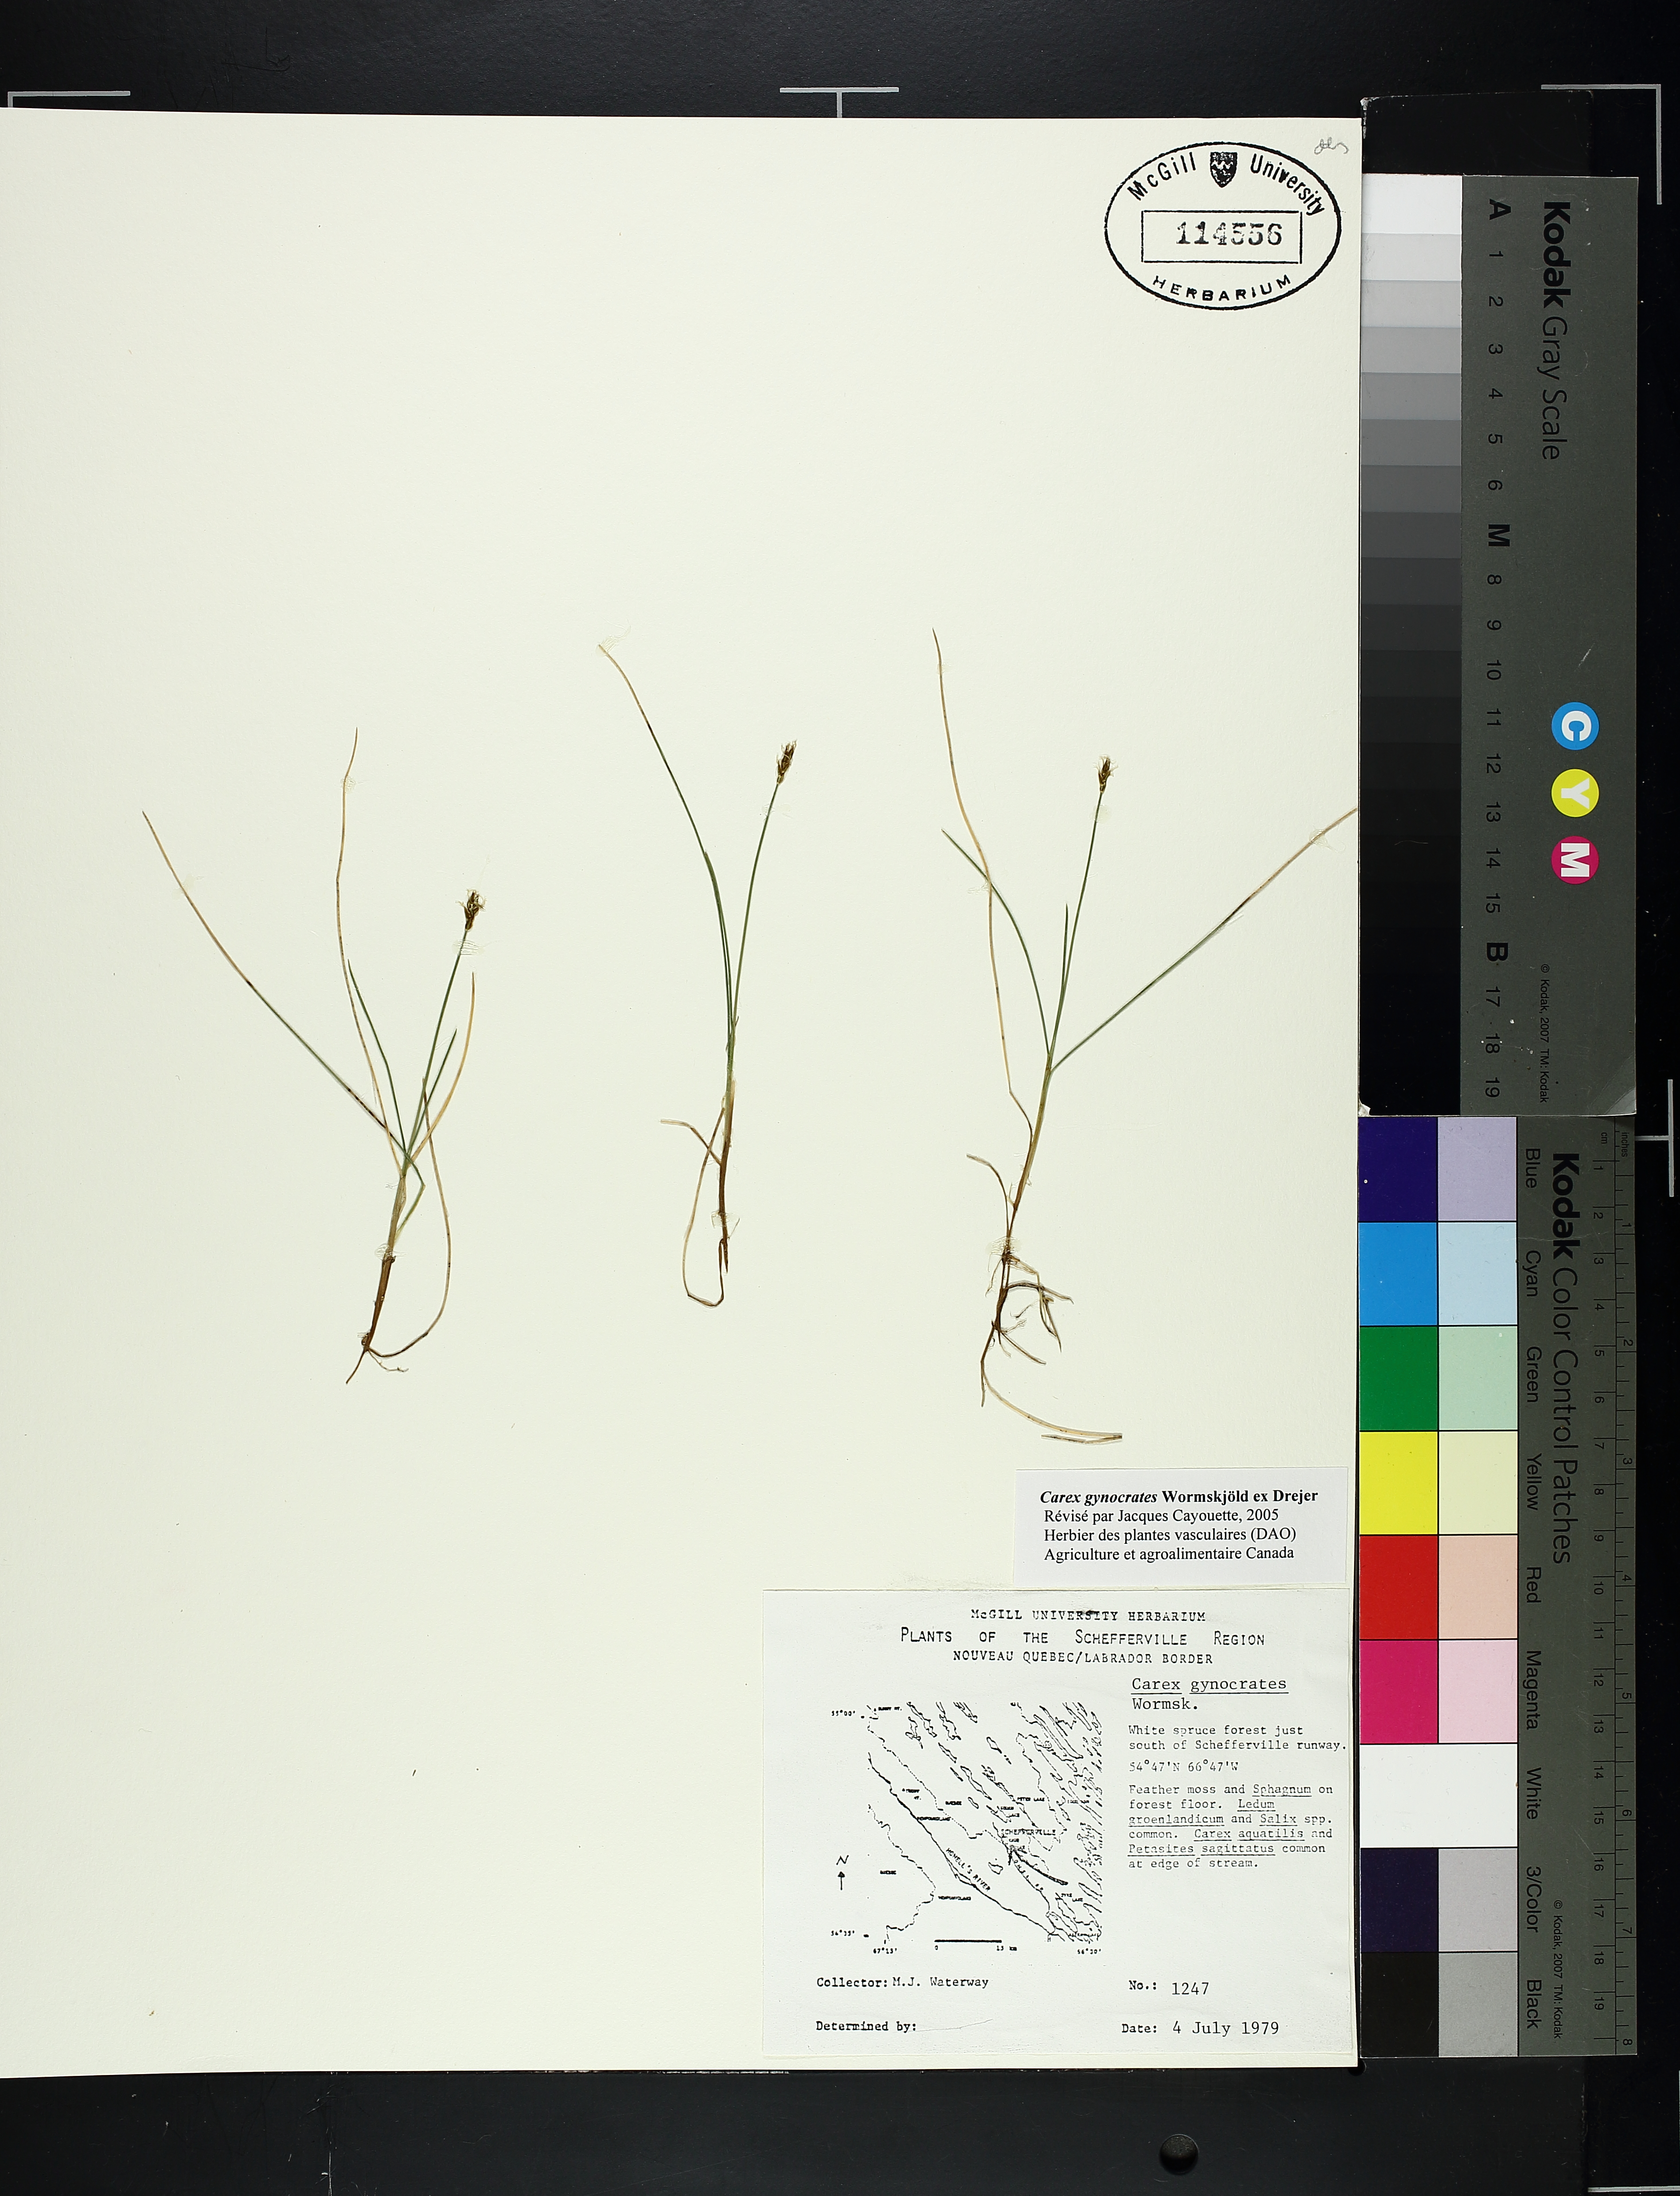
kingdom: Plantae
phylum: Tracheophyta
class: Liliopsida
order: Poales
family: Cyperaceae
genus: Carex
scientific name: Carex gynocrates
